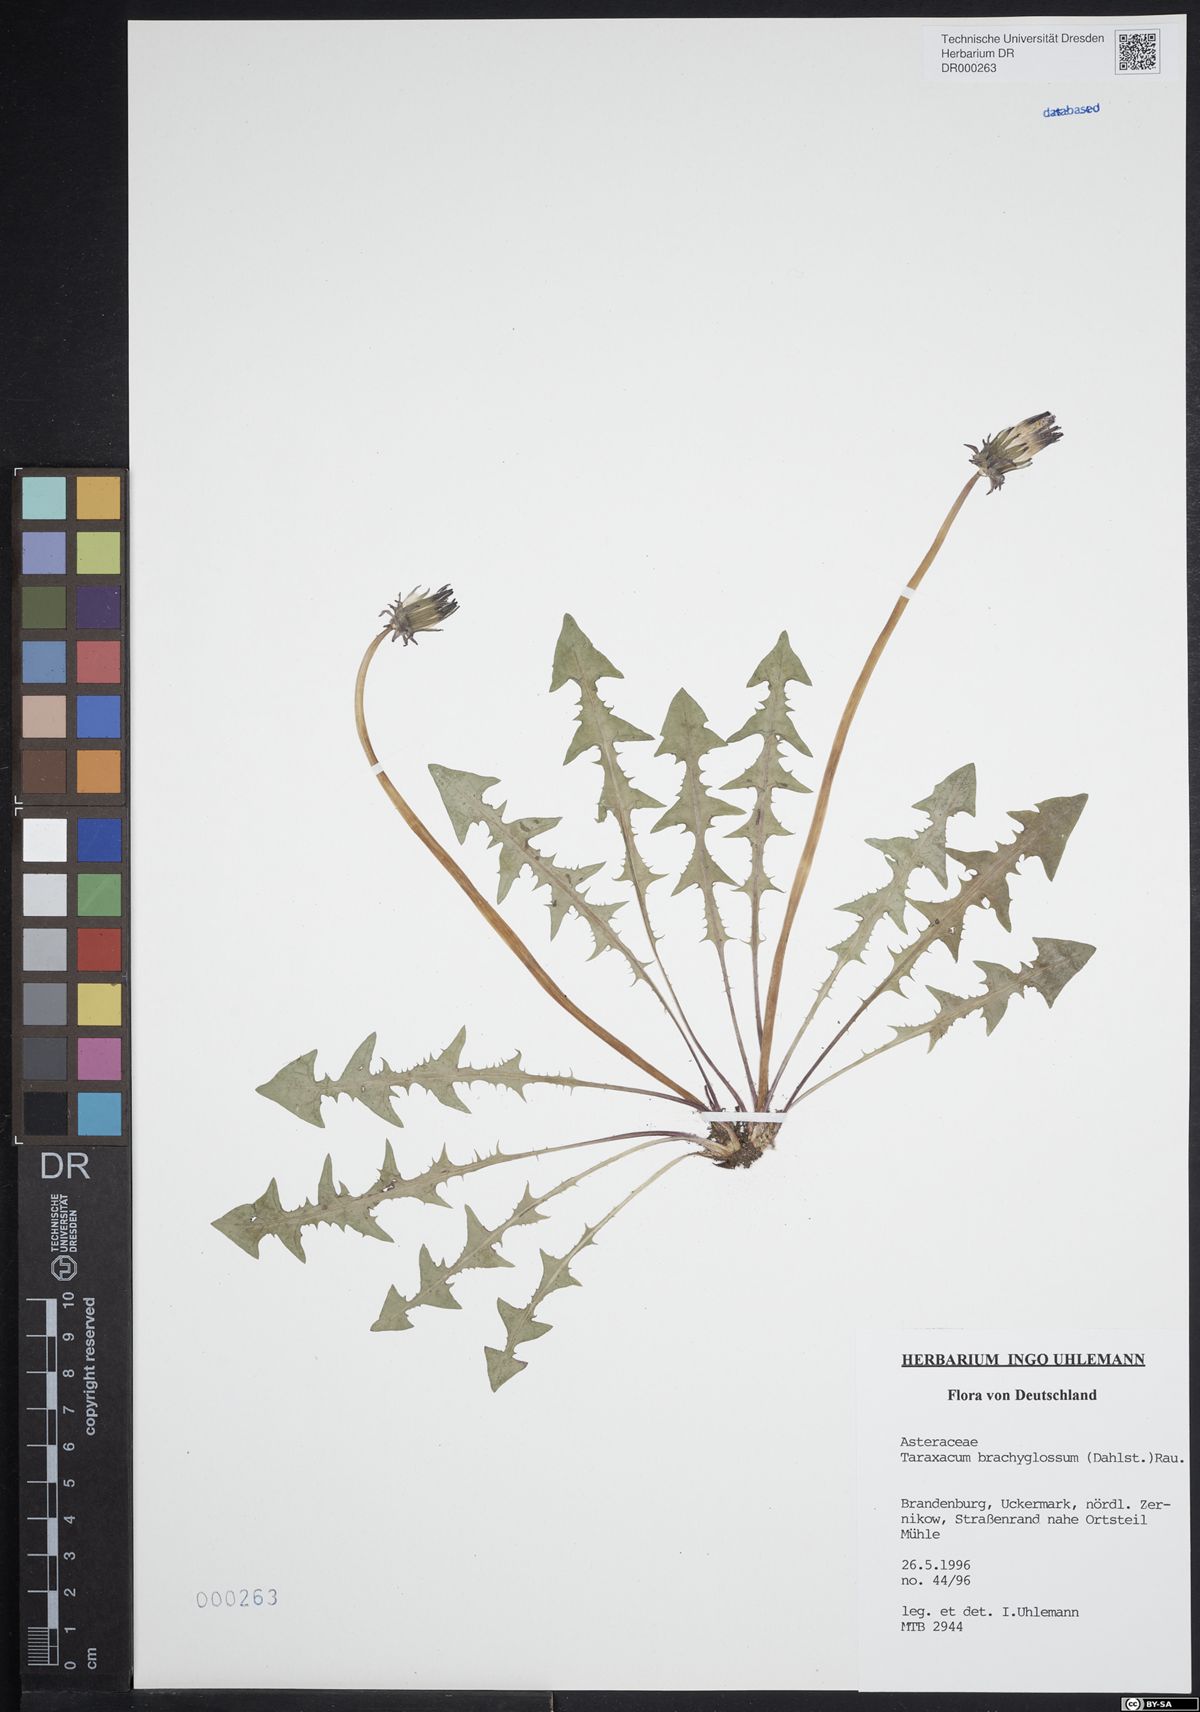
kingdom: Plantae
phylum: Tracheophyta
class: Magnoliopsida
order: Asterales
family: Asteraceae
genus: Taraxacum
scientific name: Taraxacum brachyglossum
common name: Purple-bracted dandelion
